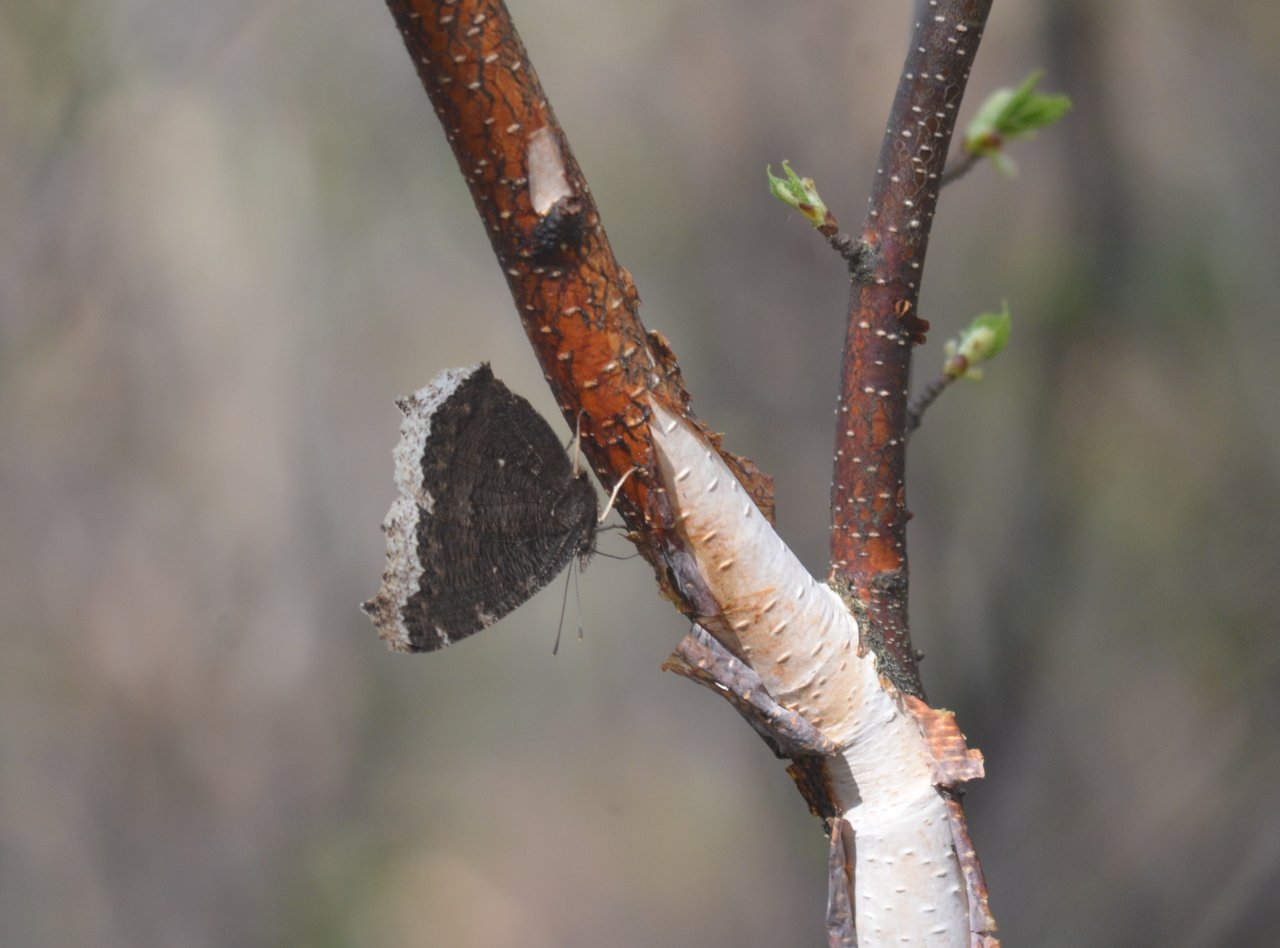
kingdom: Animalia
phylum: Arthropoda
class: Insecta
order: Lepidoptera
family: Nymphalidae
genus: Nymphalis
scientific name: Nymphalis antiopa
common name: Mourning Cloak
